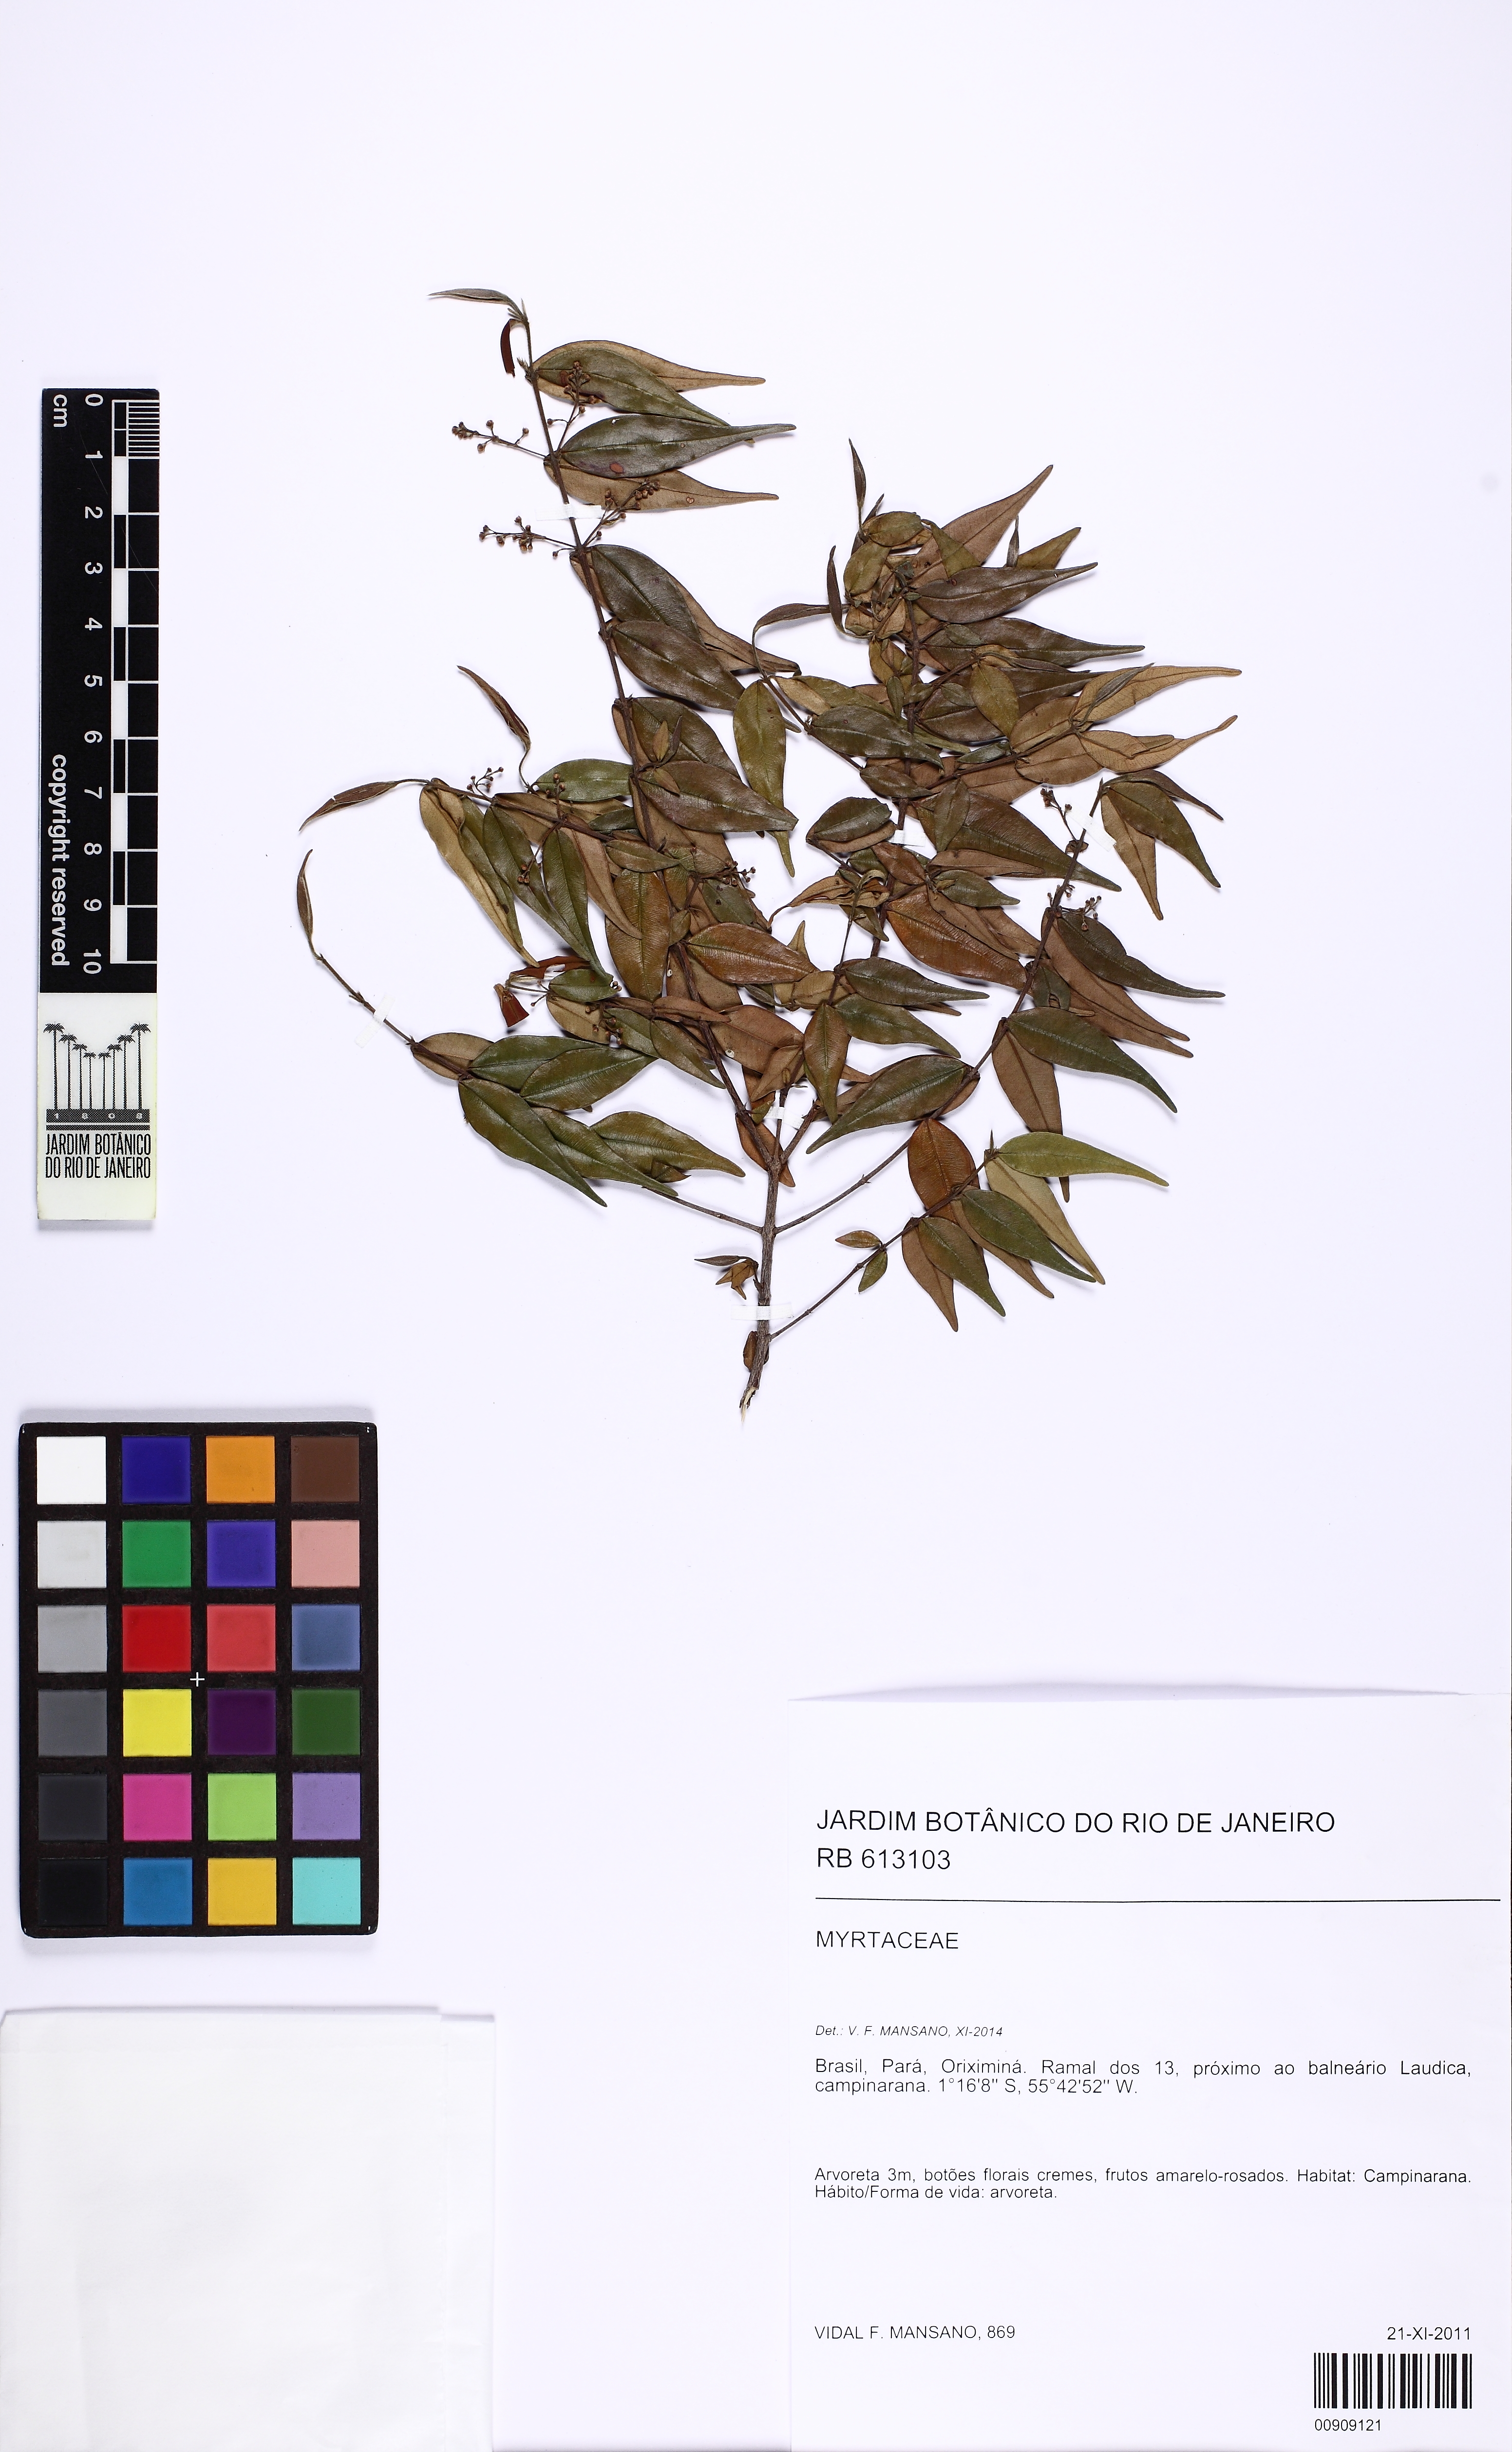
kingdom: Plantae
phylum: Tracheophyta
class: Magnoliopsida
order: Myrtales
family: Myrtaceae
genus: Myrcia
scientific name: Myrcia sylvatica
